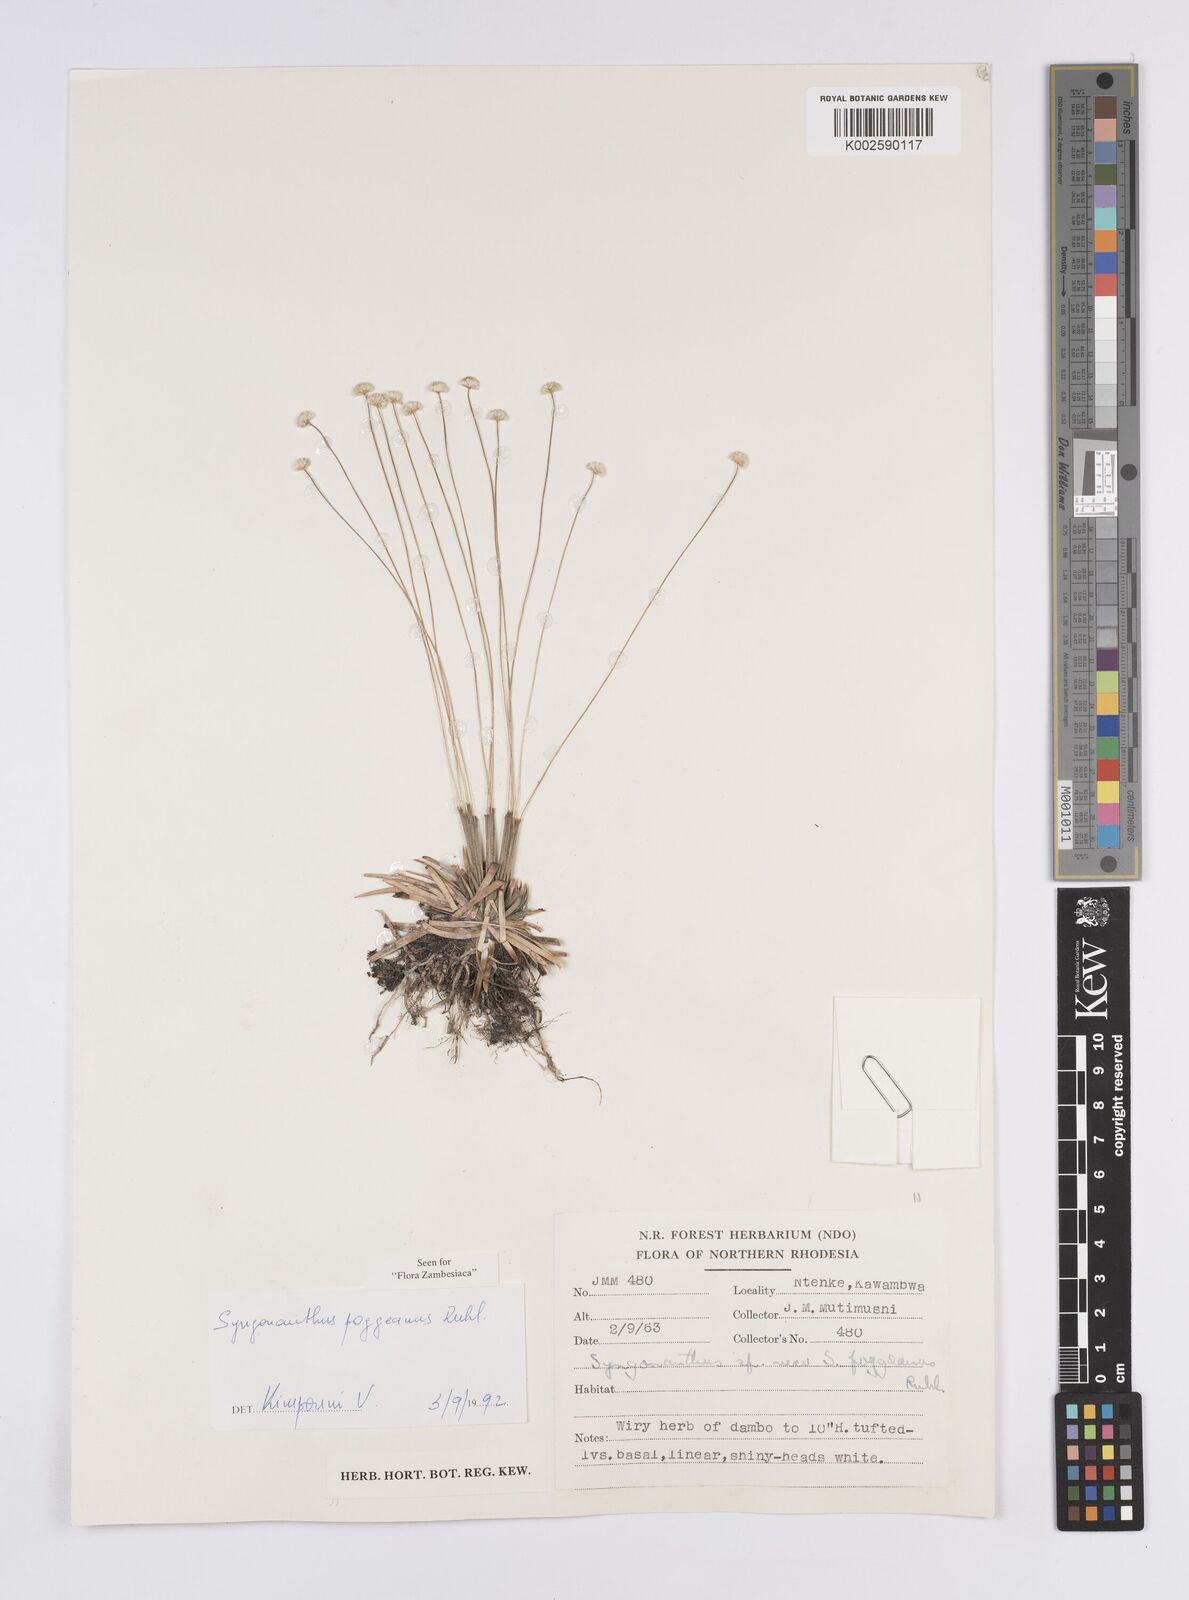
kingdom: Plantae
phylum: Tracheophyta
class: Liliopsida
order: Poales
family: Eriocaulaceae
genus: Syngonanthus
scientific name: Syngonanthus poggeanus
